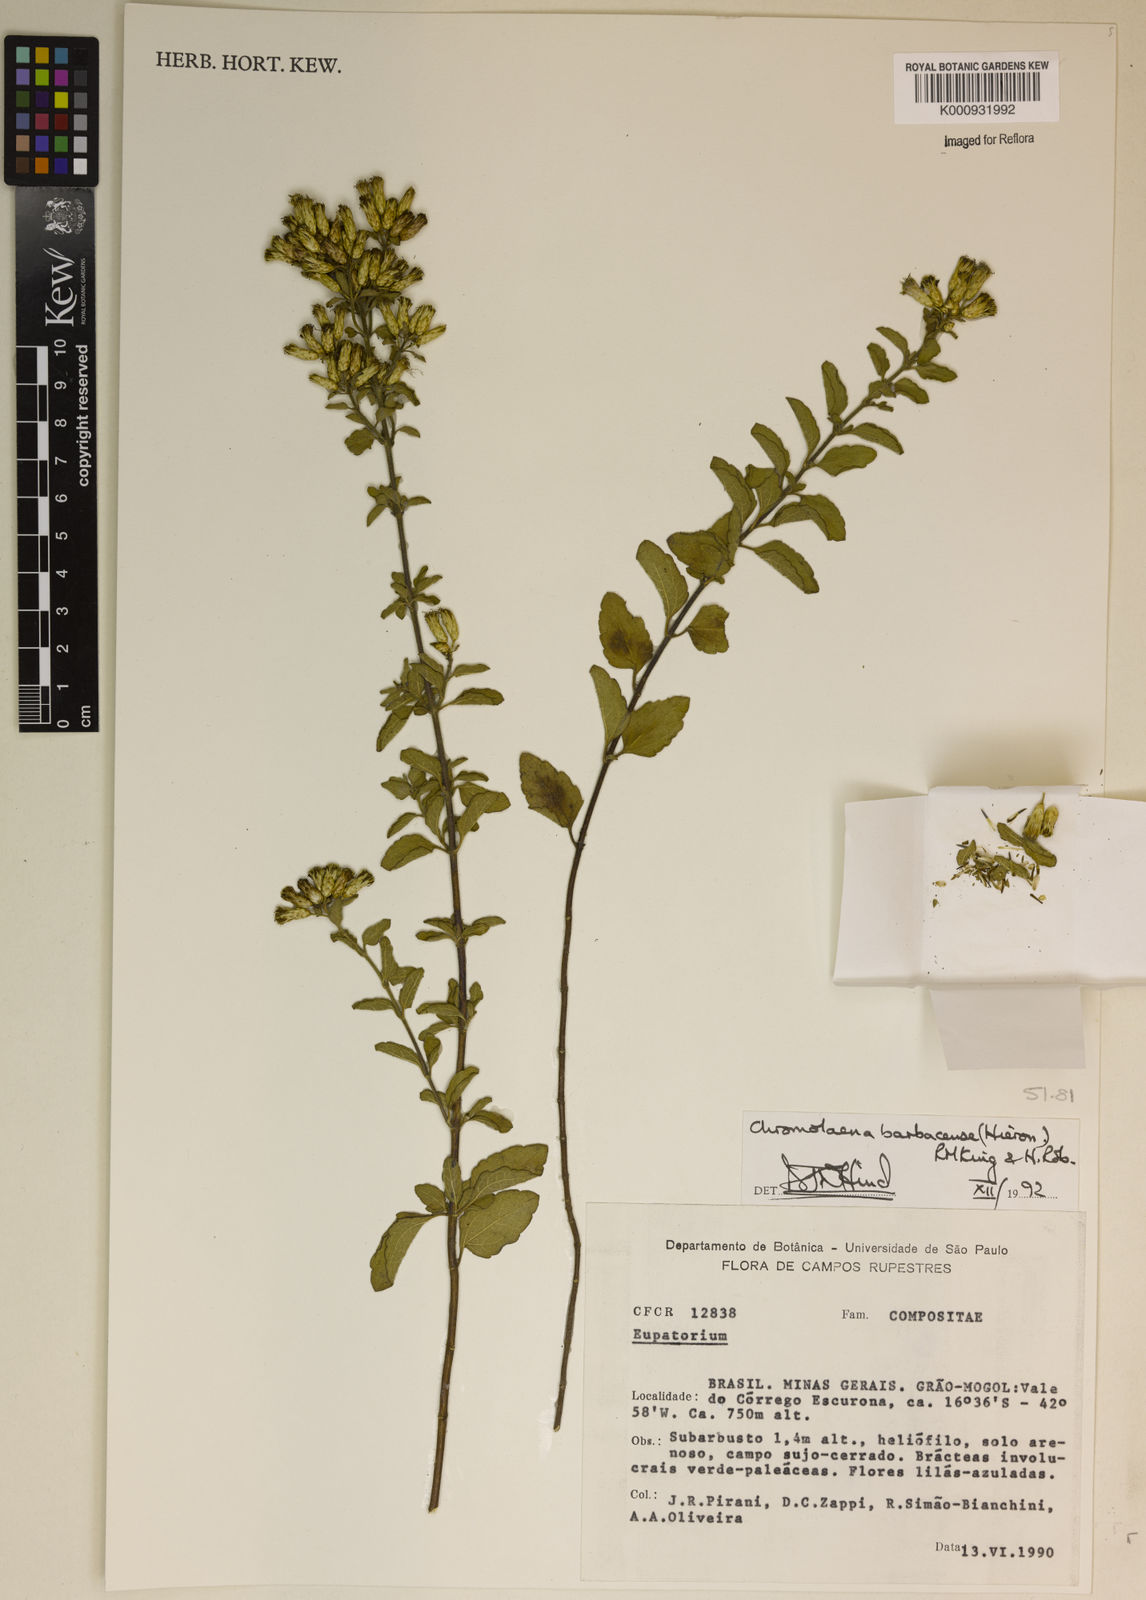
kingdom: Plantae
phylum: Tracheophyta
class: Magnoliopsida
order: Asterales
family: Asteraceae
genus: Chromolaena
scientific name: Chromolaena barbacensis
